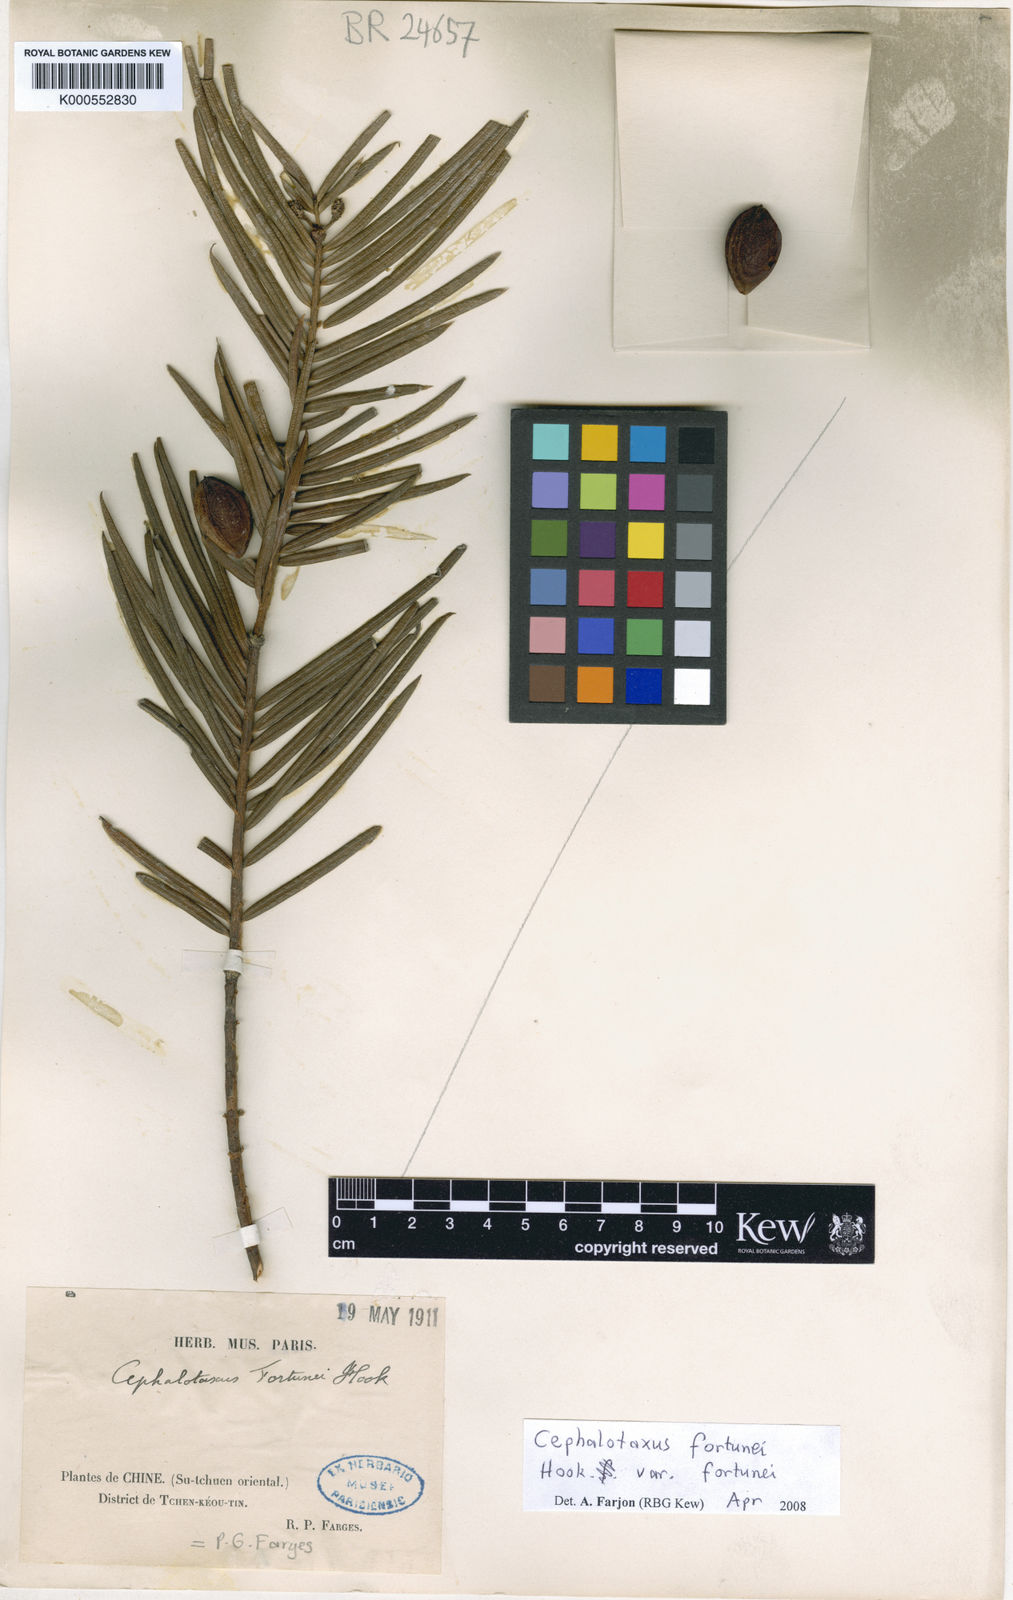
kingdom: Plantae
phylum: Tracheophyta
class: Pinopsida
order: Pinales
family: Cephalotaxaceae
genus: Cephalotaxus
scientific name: Cephalotaxus fortunei
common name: Chinese plum-yew
